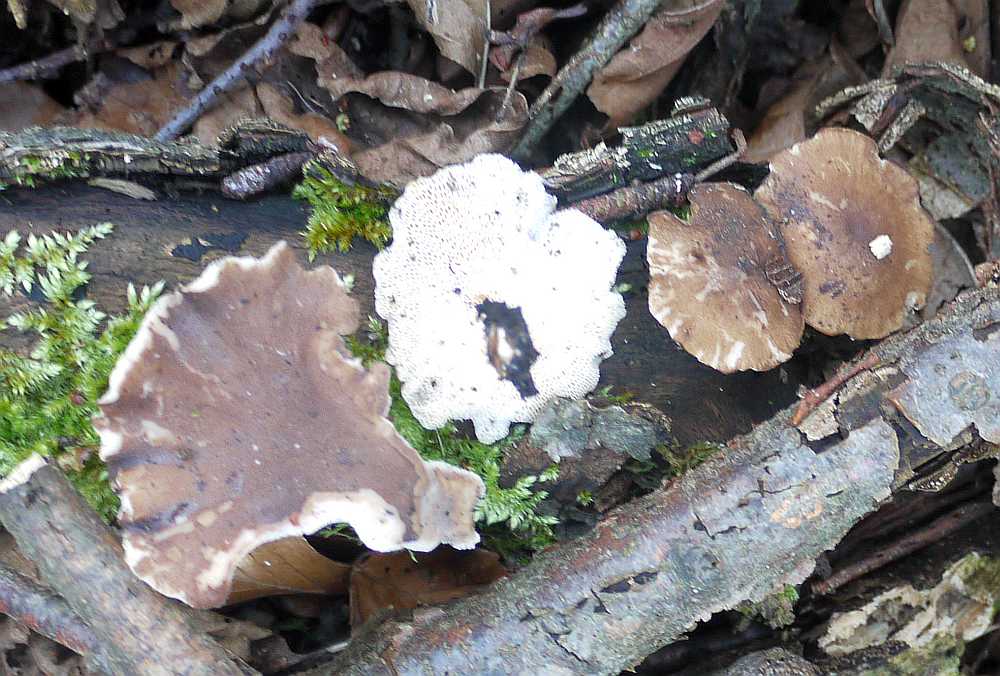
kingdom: Fungi
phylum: Basidiomycota
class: Agaricomycetes
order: Polyporales
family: Polyporaceae
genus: Lentinus
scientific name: Lentinus brumalis
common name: vinter-stilkporesvamp
